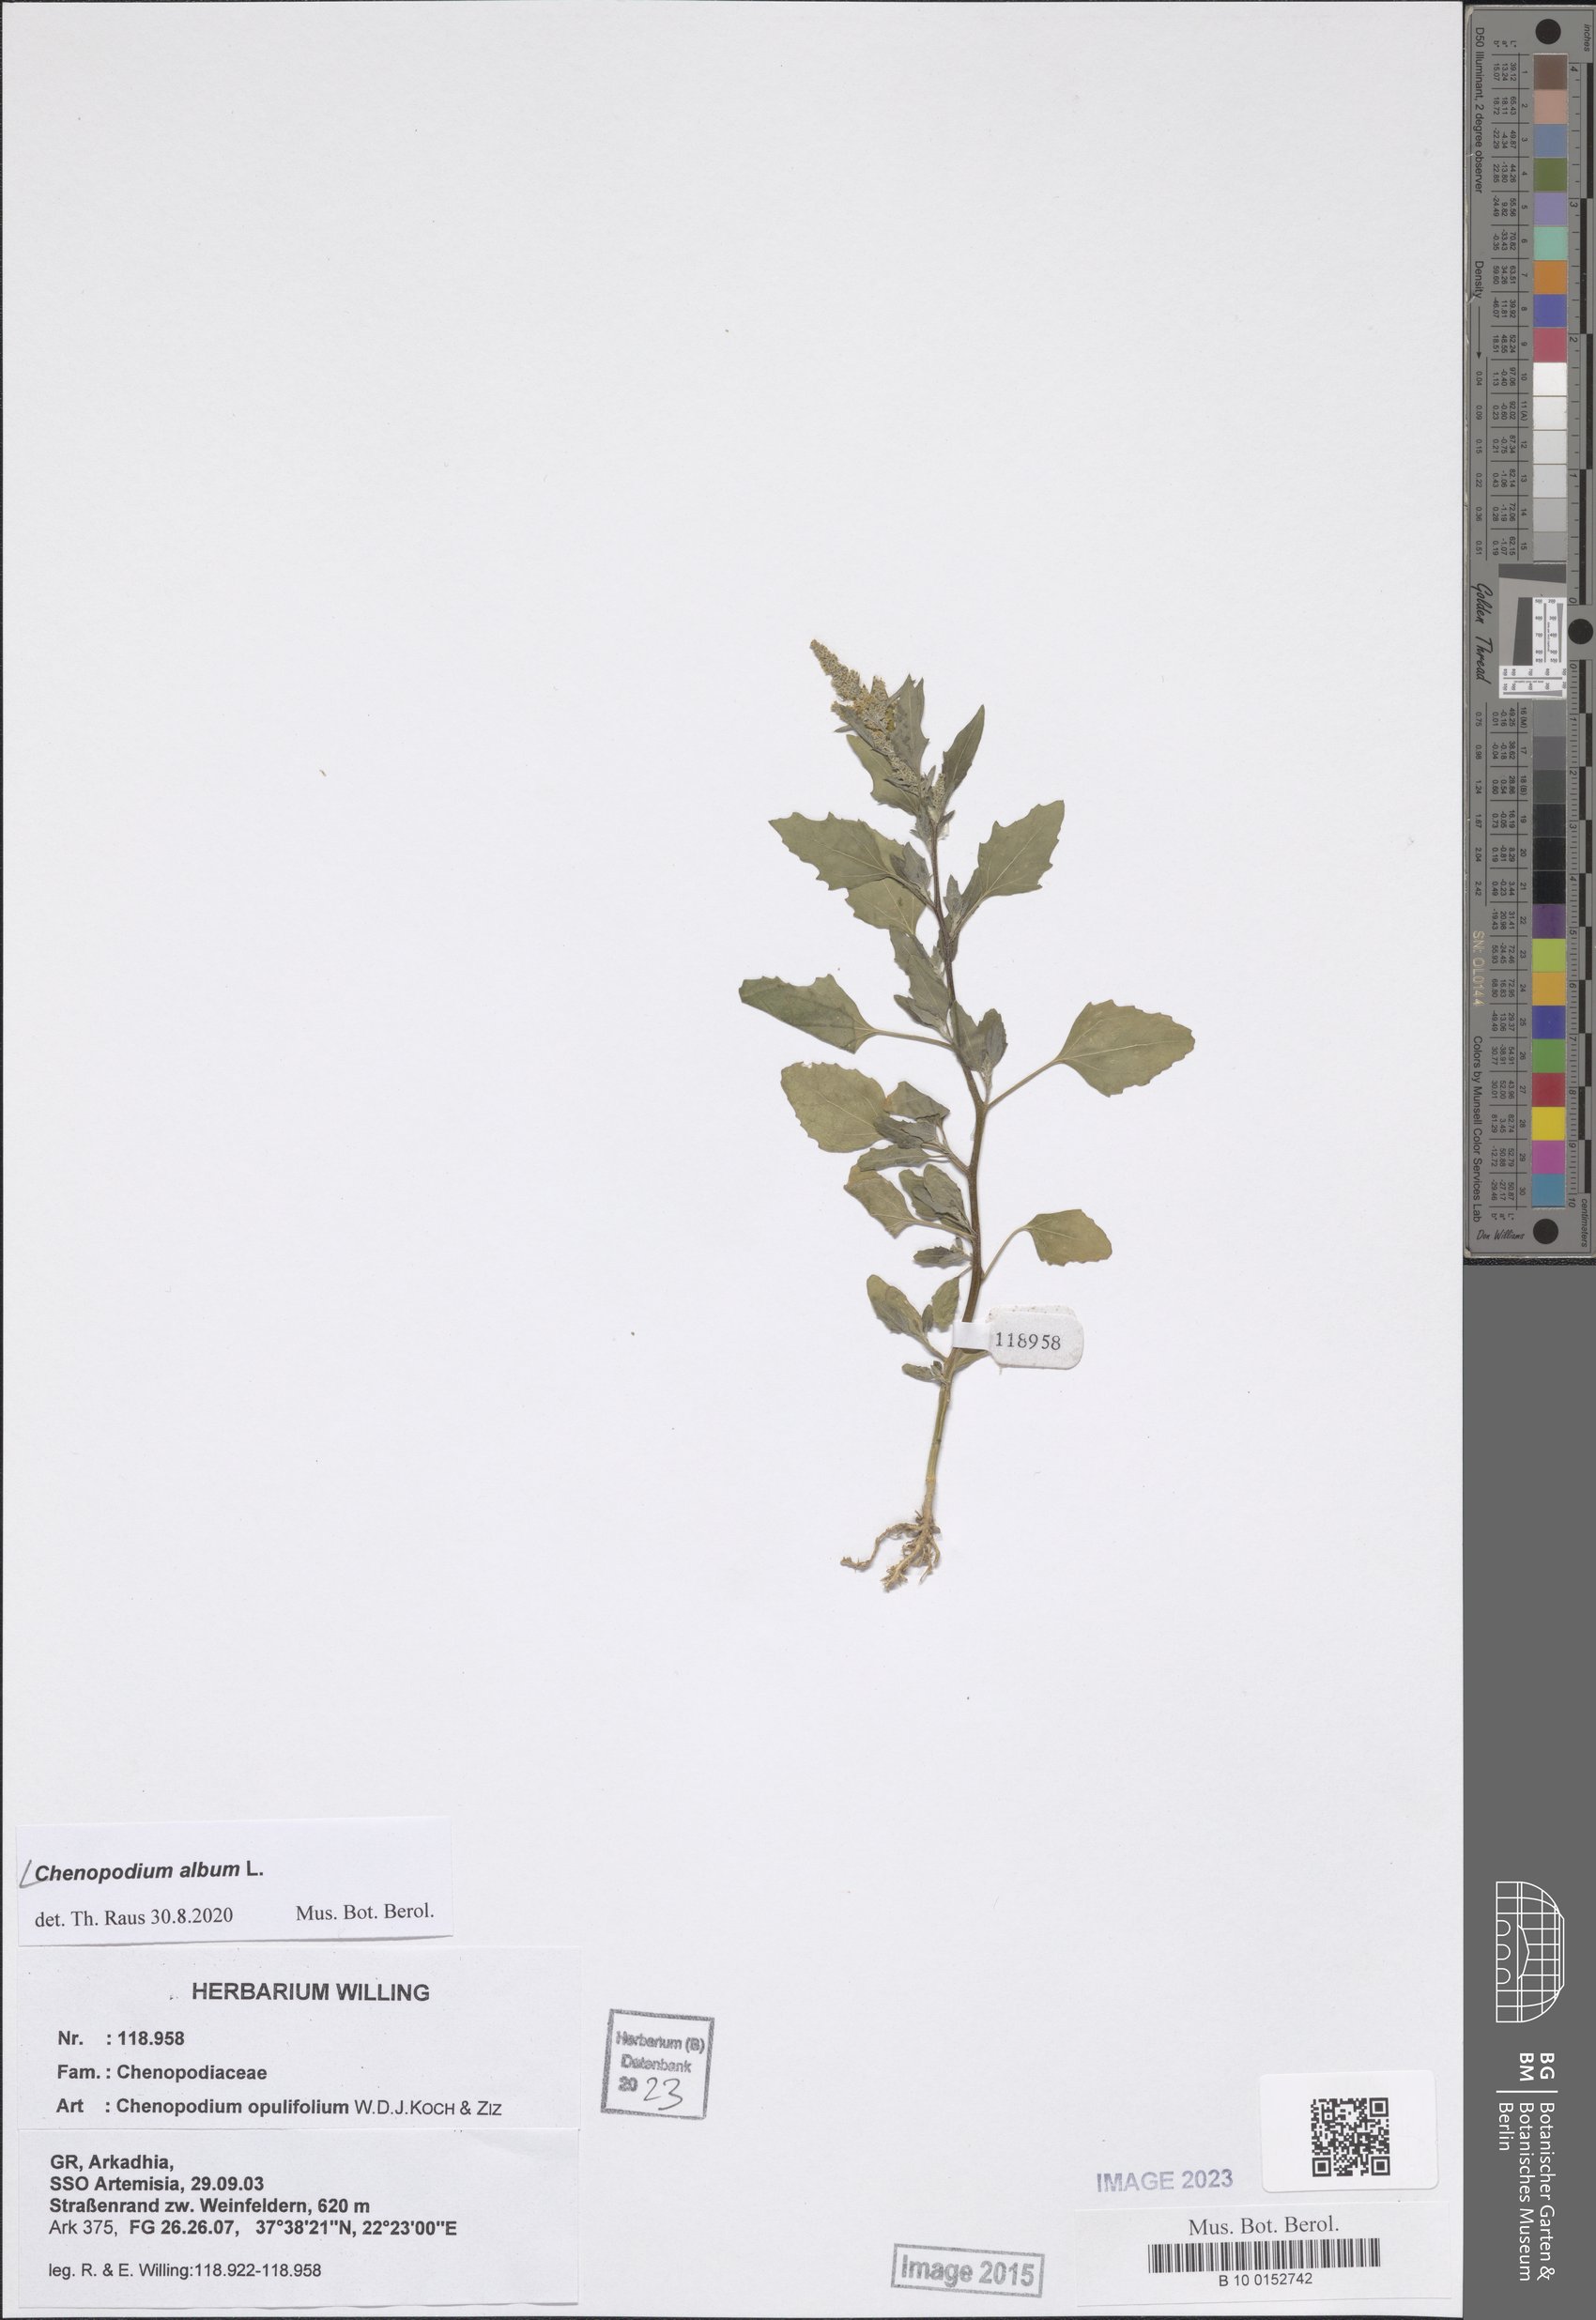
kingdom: Plantae
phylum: Tracheophyta
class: Magnoliopsida
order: Caryophyllales
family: Amaranthaceae
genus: Chenopodium
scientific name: Chenopodium album
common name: Fat-hen
